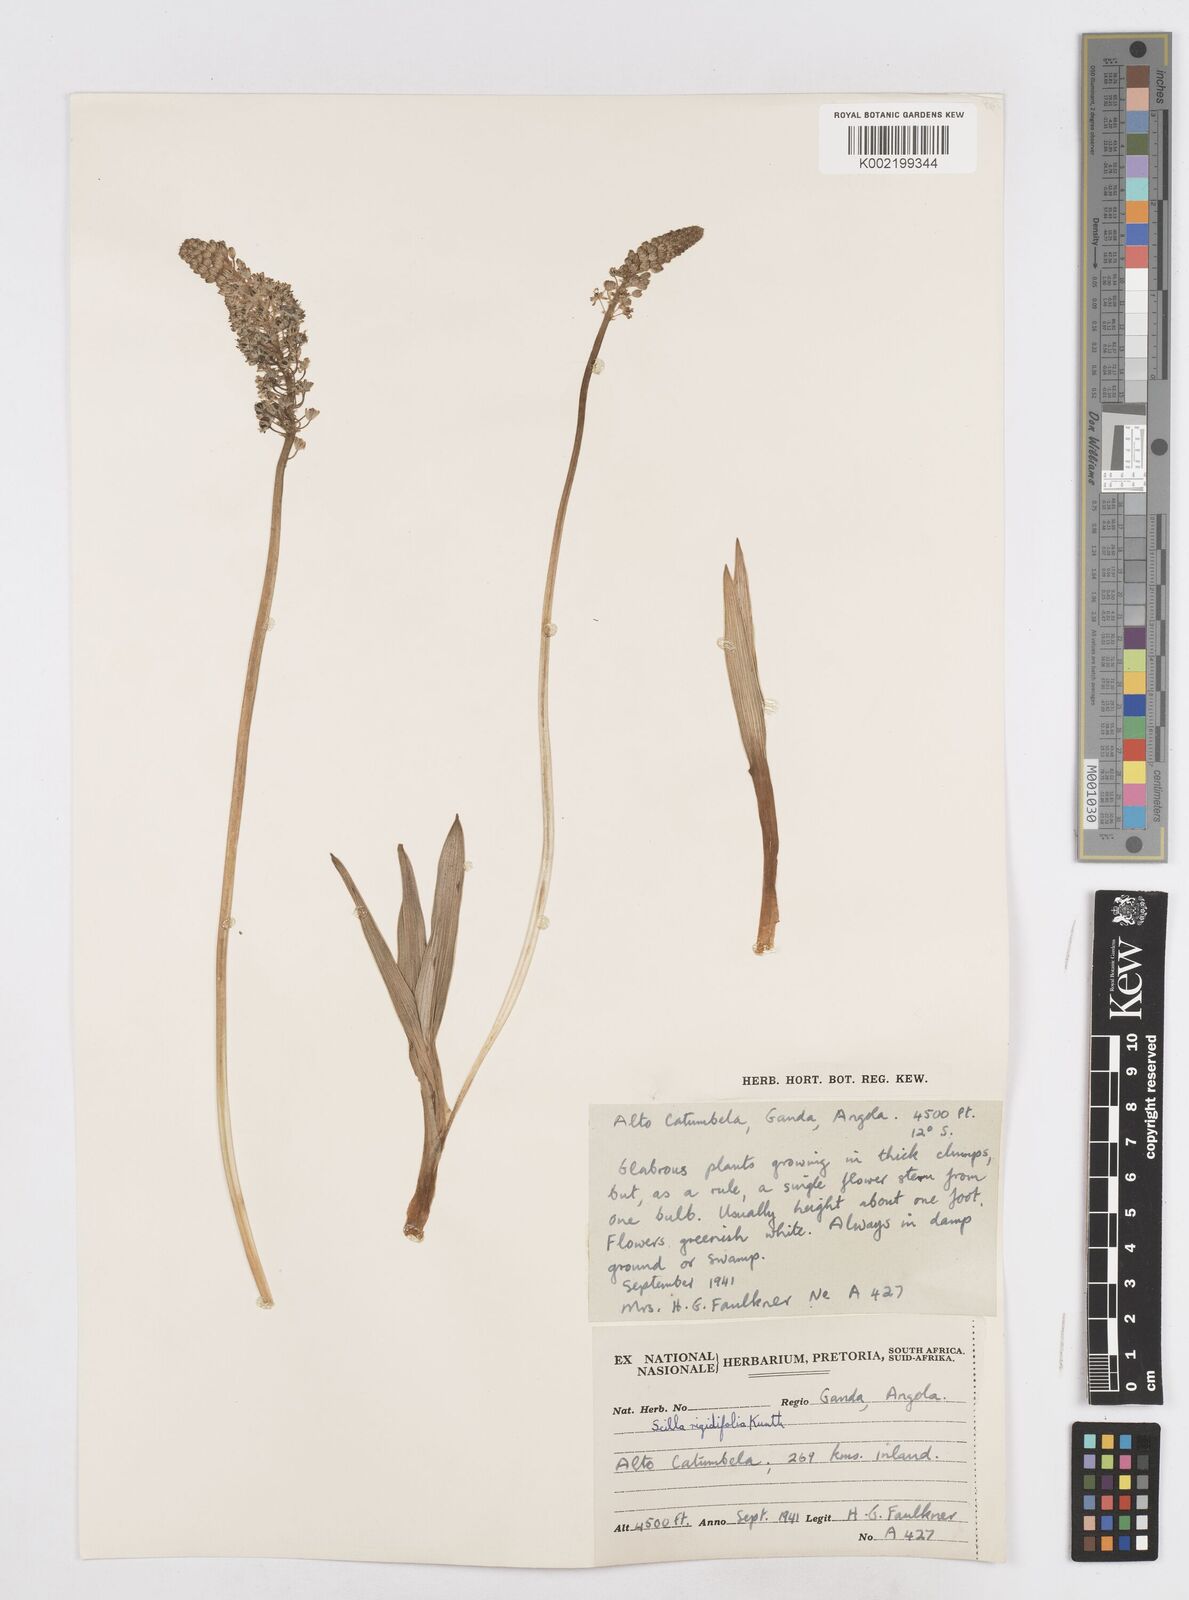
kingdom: Plantae
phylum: Tracheophyta
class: Liliopsida
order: Asparagales
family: Asparagaceae
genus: Schizocarphus
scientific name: Schizocarphus nervosus
